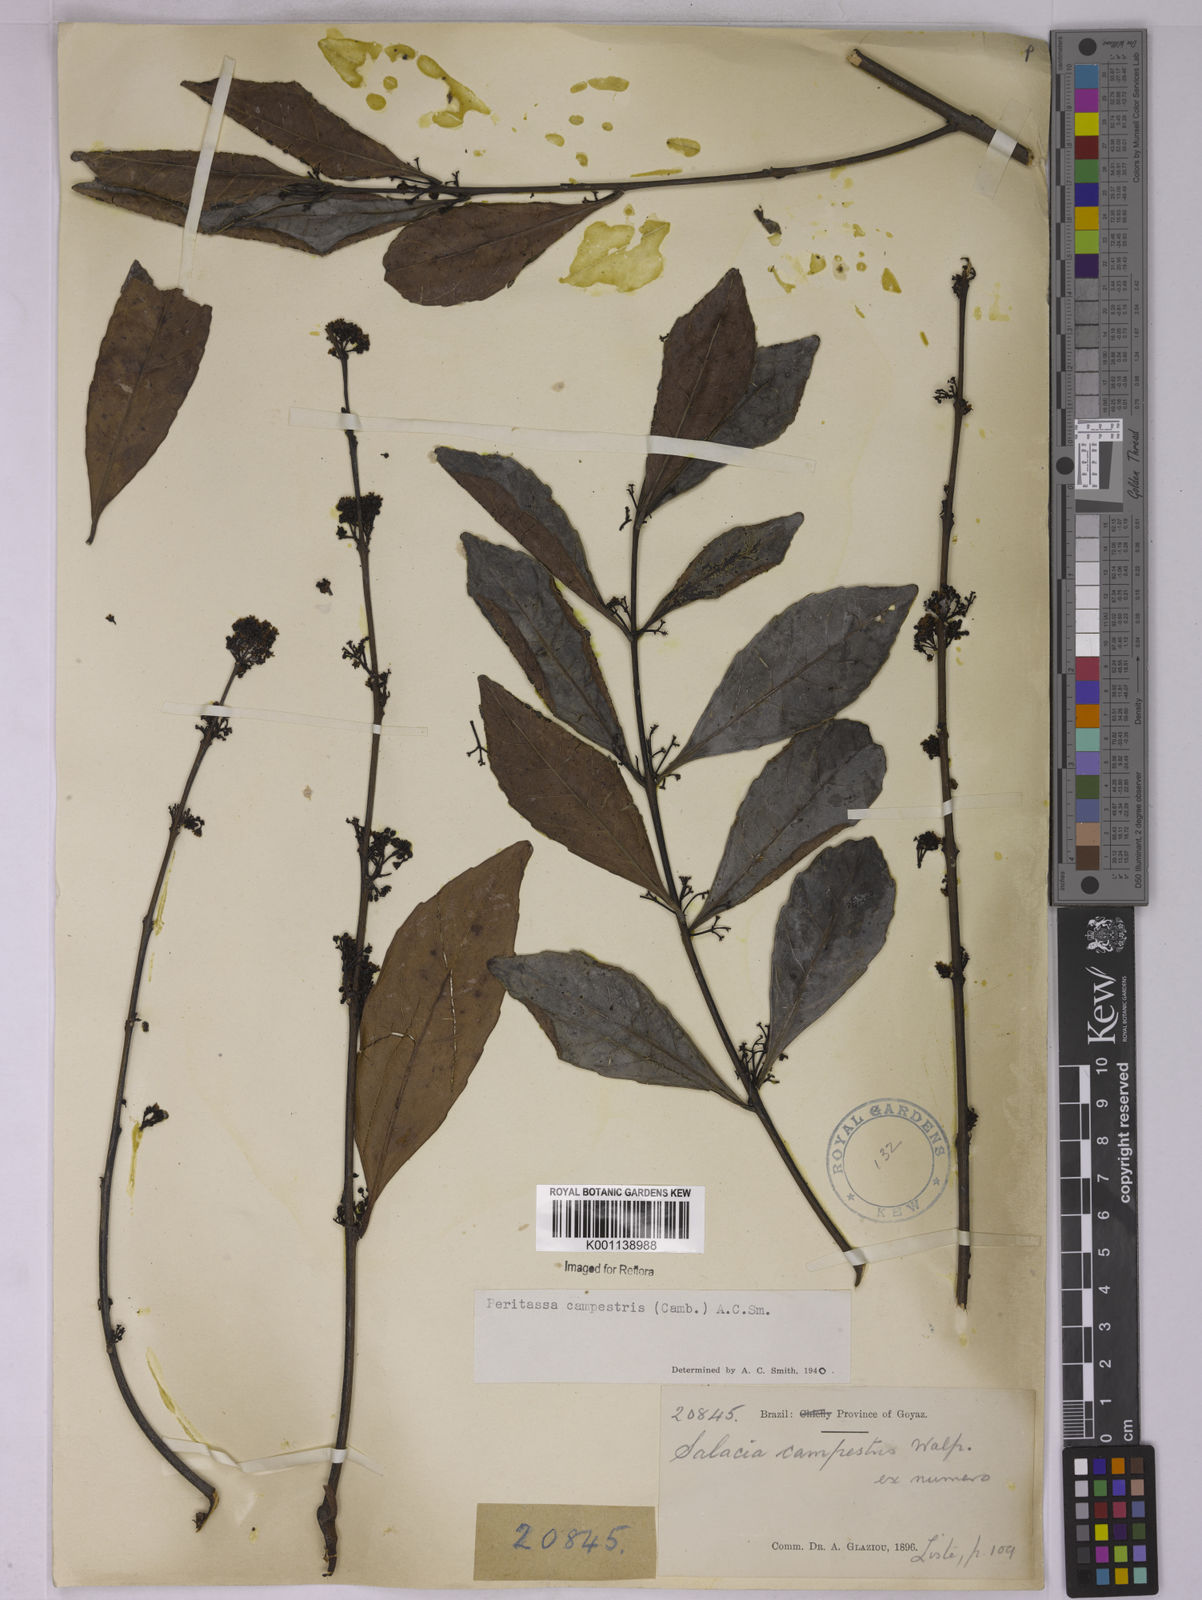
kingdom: Plantae
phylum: Tracheophyta
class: Magnoliopsida
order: Celastrales
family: Celastraceae
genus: Peritassa
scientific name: Peritassa campestris
